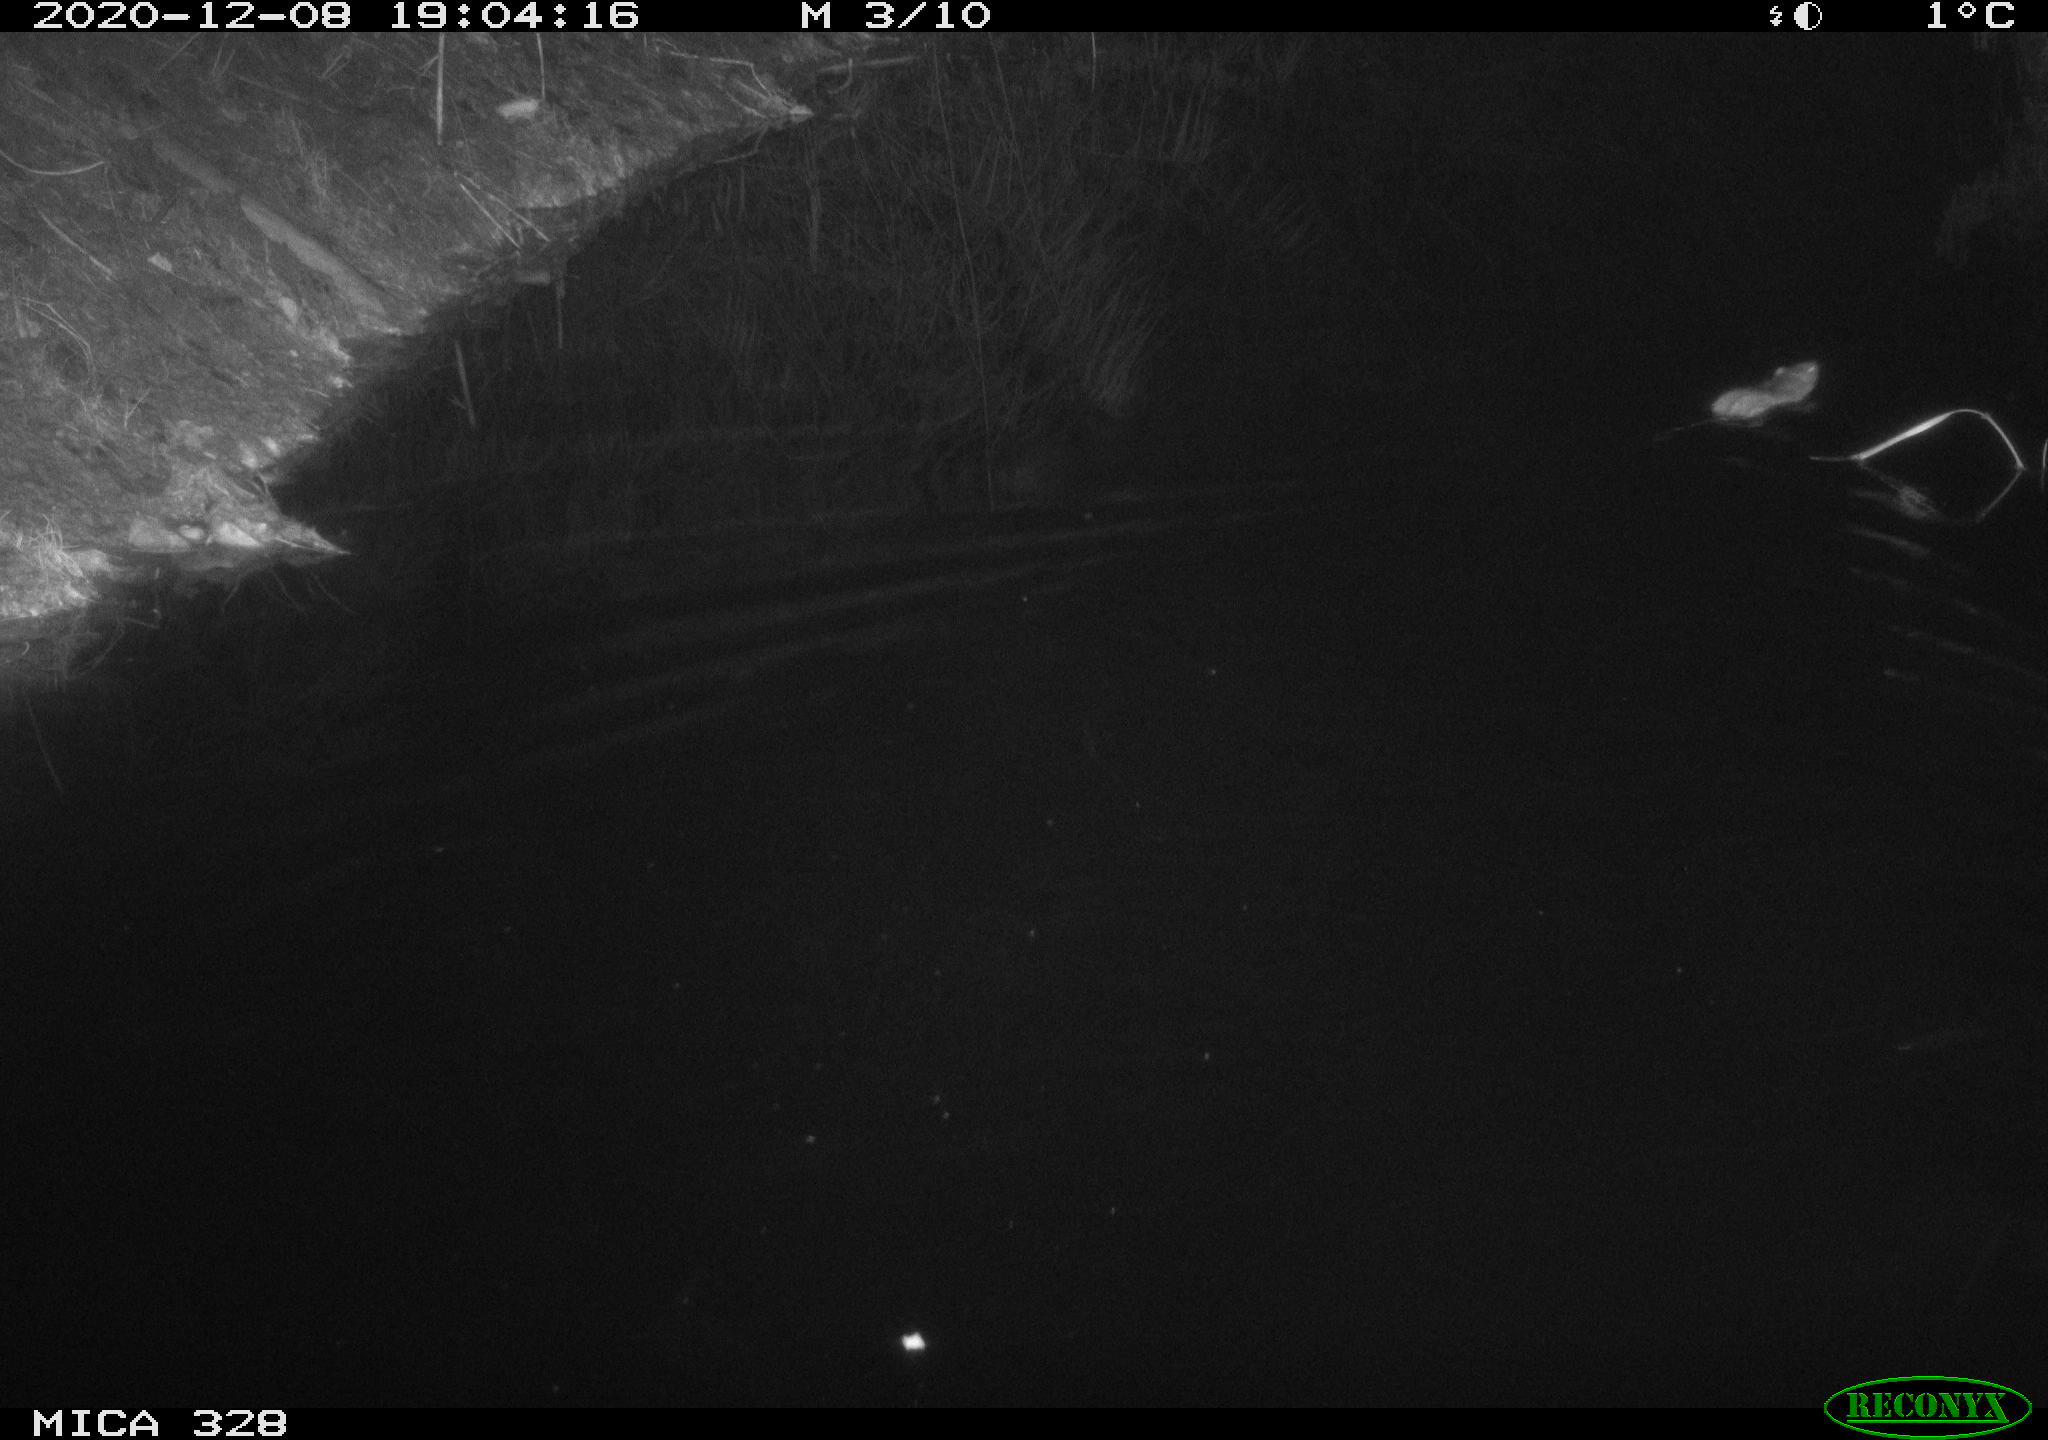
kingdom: Animalia
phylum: Chordata
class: Mammalia
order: Rodentia
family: Muridae
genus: Rattus
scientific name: Rattus norvegicus
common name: Brown rat
